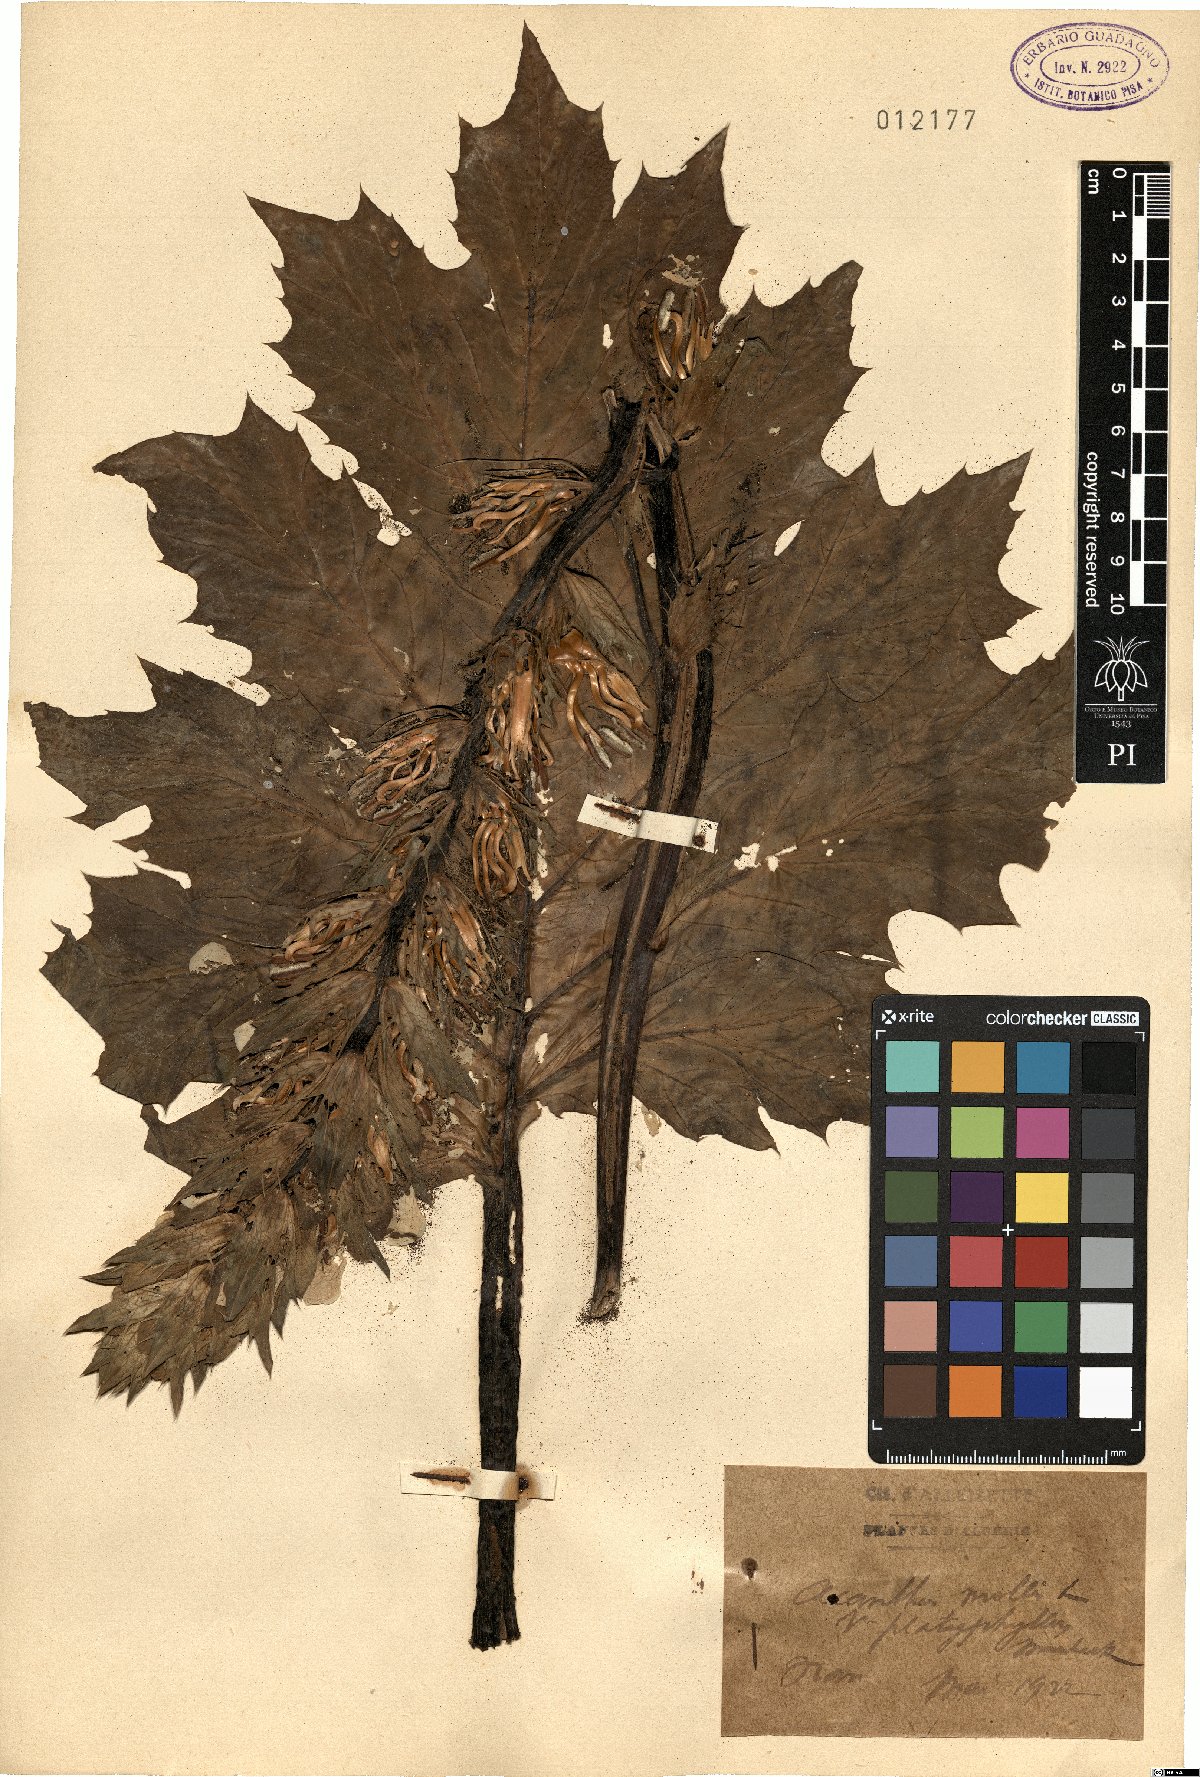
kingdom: Plantae
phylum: Tracheophyta
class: Magnoliopsida
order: Lamiales
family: Acanthaceae
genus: Acanthus
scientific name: Acanthus mollis
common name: Bear's-breech
